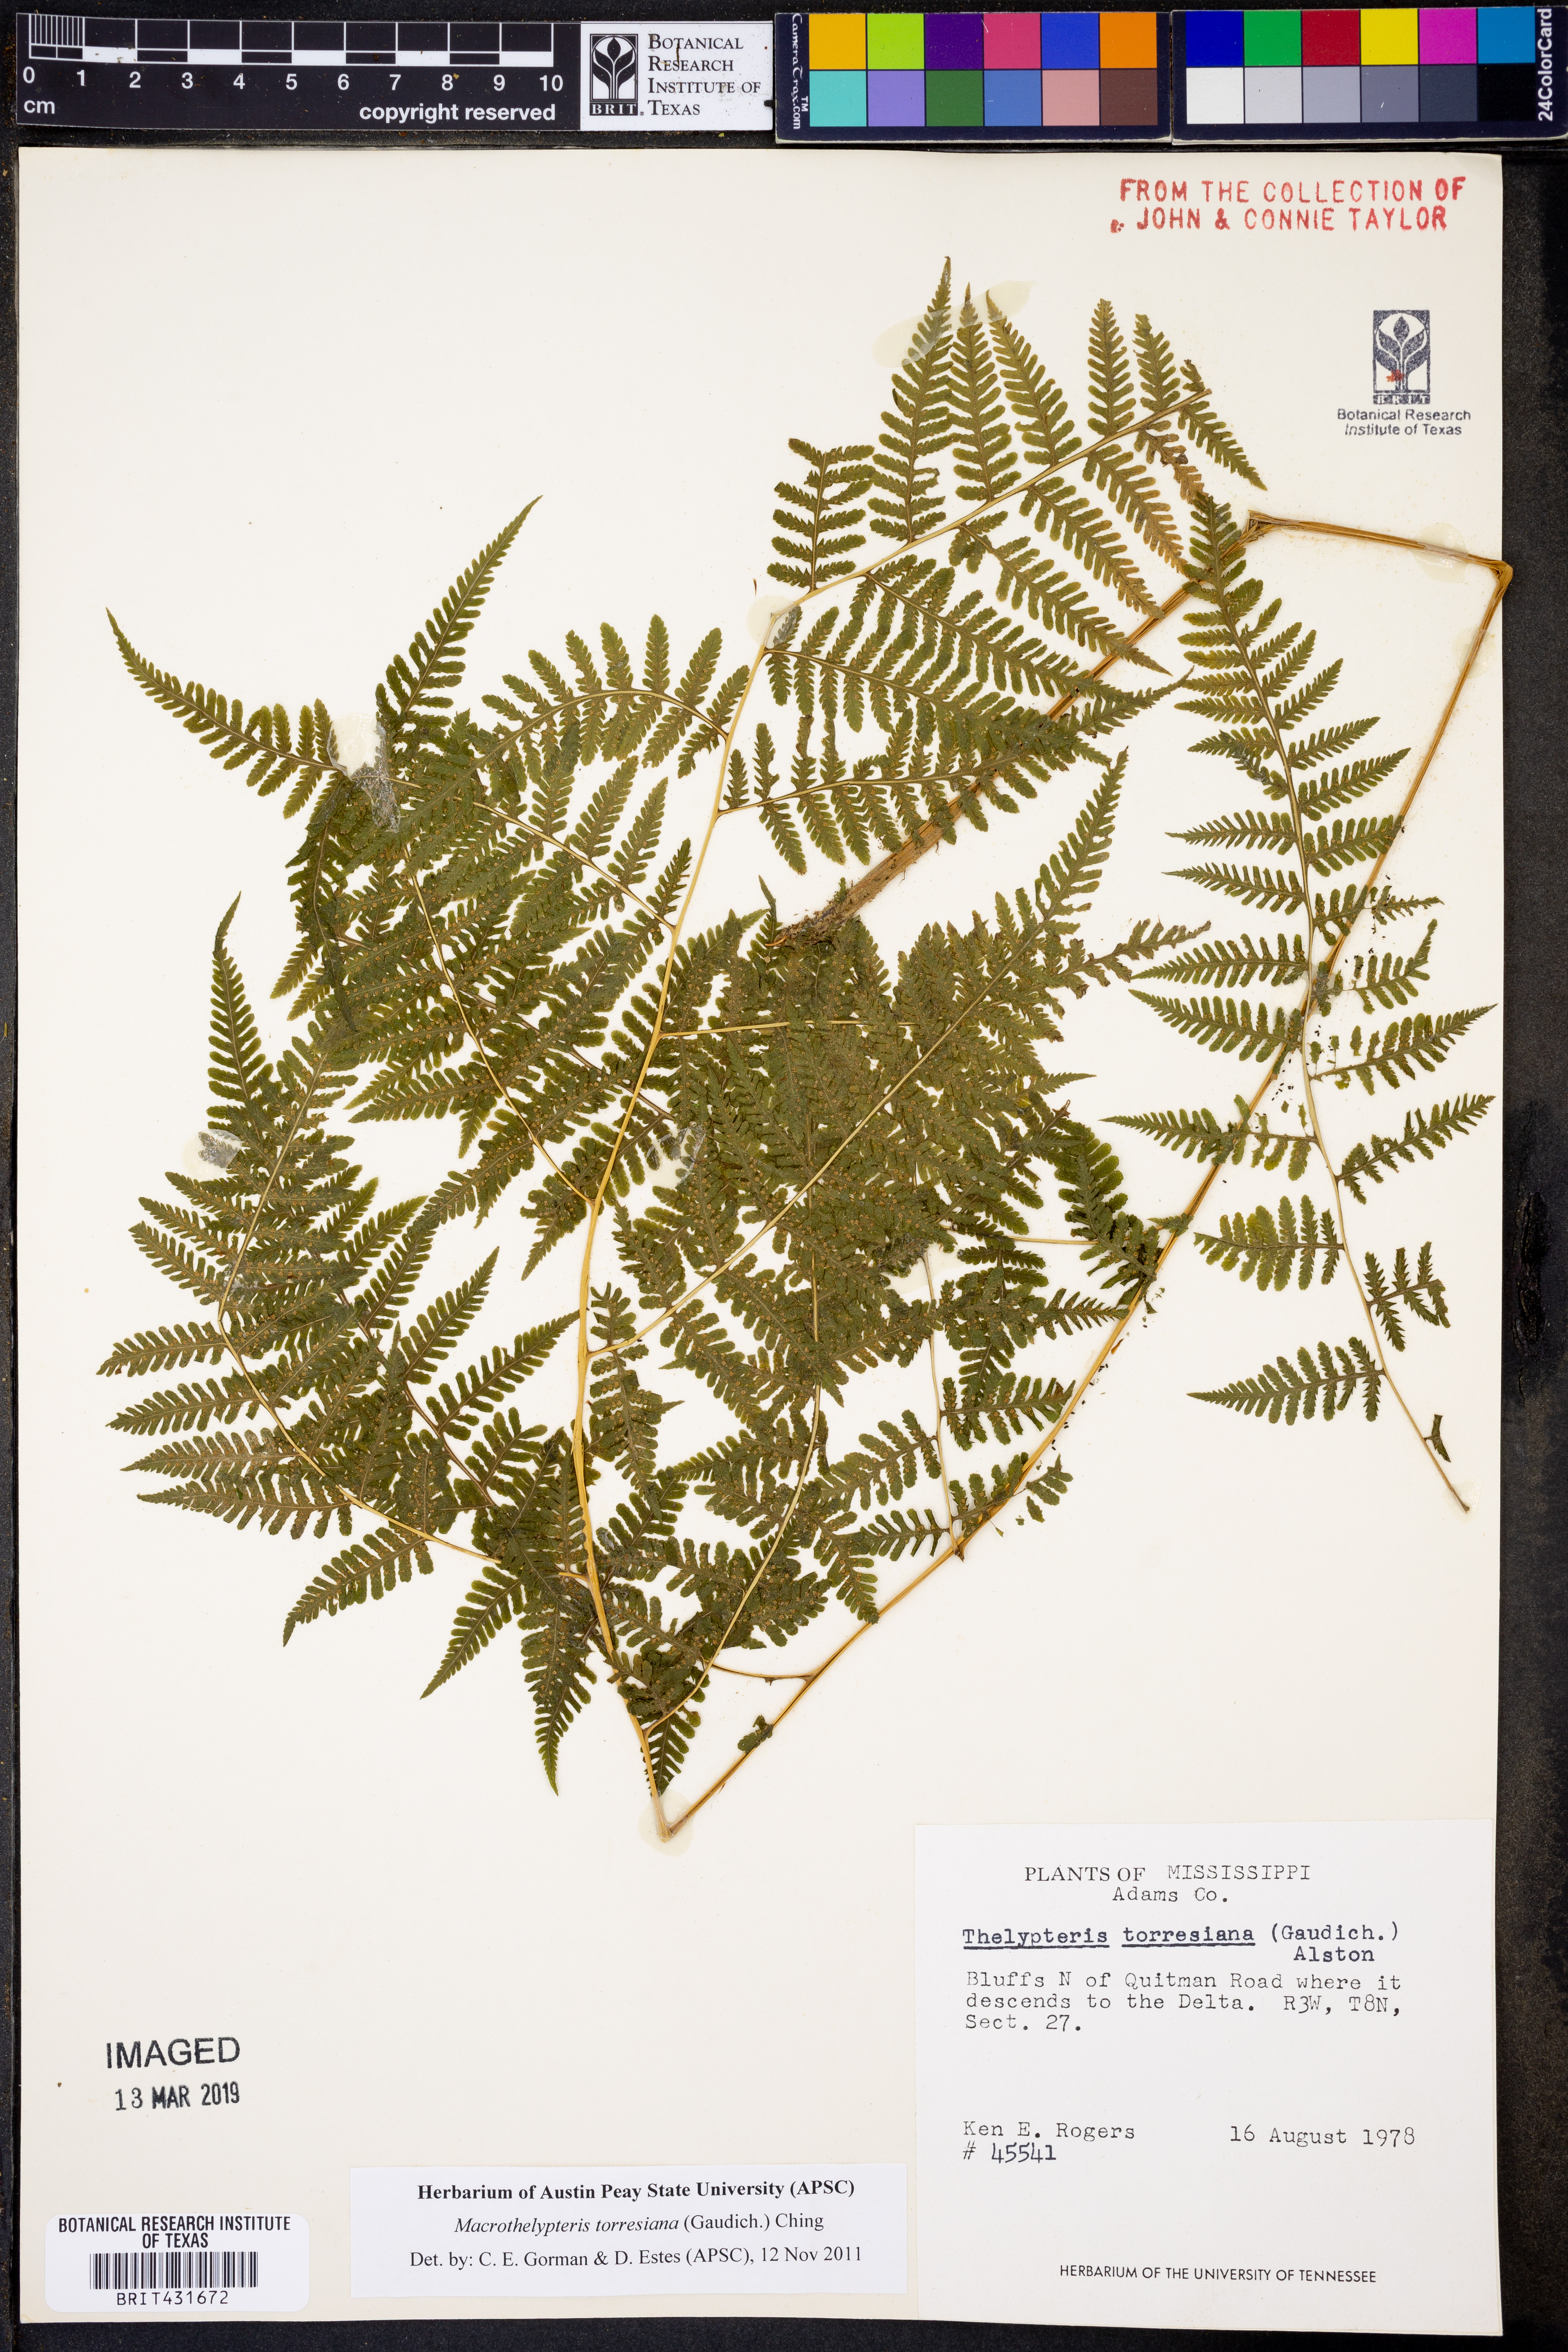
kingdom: Plantae
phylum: Tracheophyta
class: Polypodiopsida
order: Polypodiales
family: Thelypteridaceae
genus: Macrothelypteris
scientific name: Macrothelypteris torresiana
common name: Swordfern
